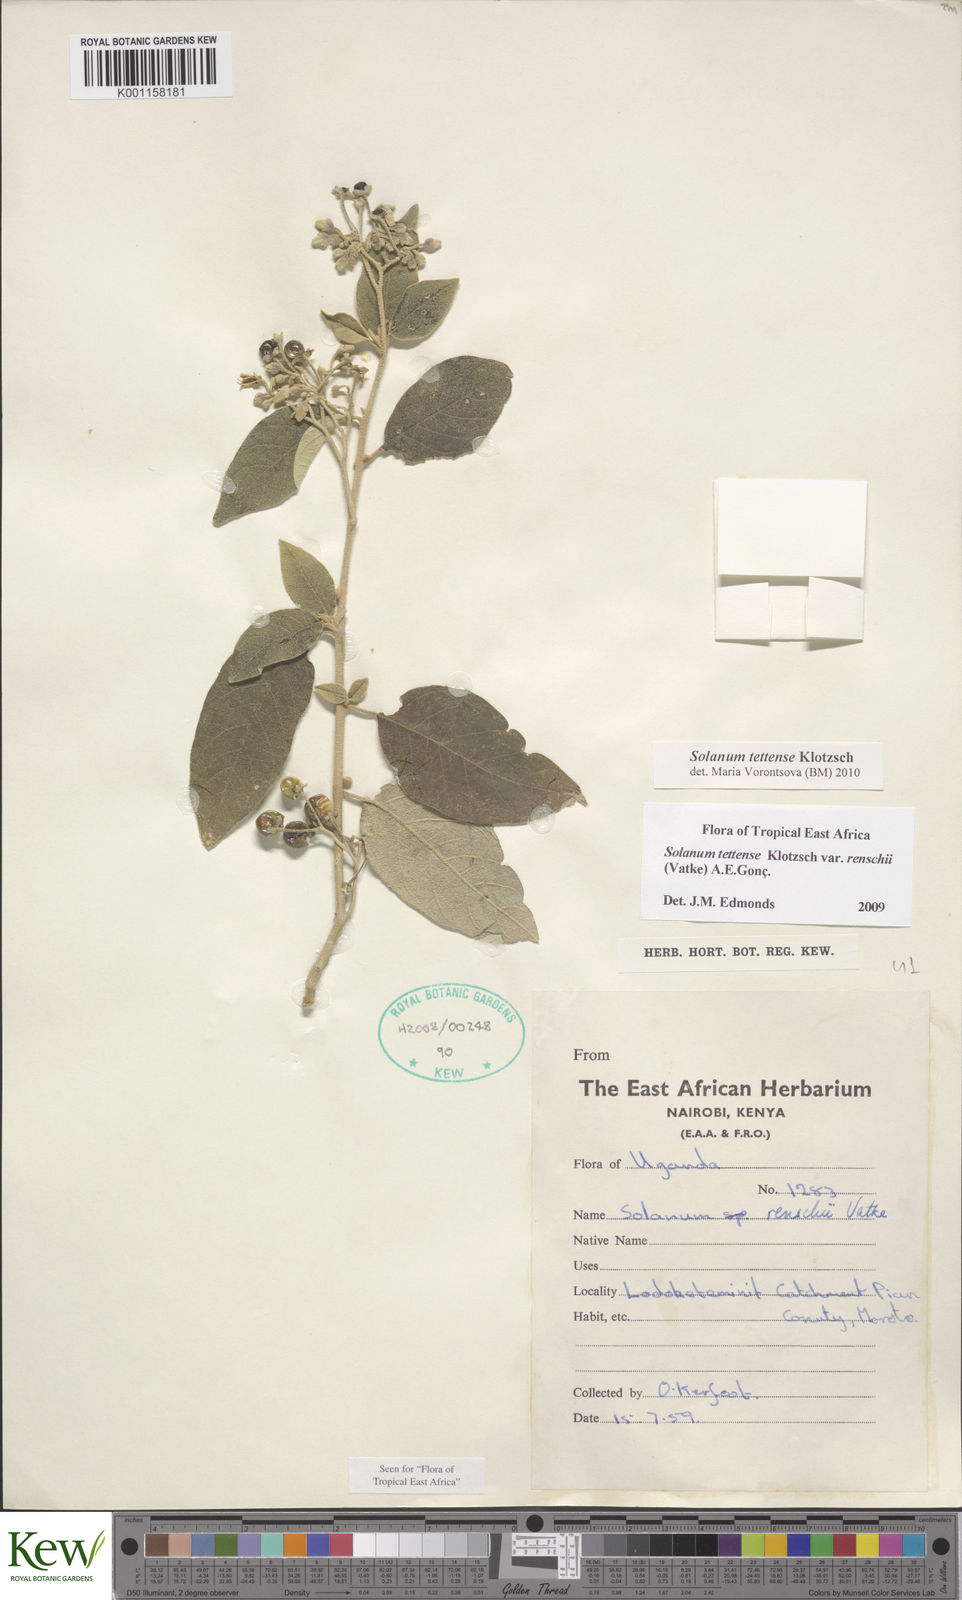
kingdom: Plantae
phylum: Tracheophyta
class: Magnoliopsida
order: Solanales
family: Solanaceae
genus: Solanum
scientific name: Solanum tettense
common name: Mozambique bitter apple
